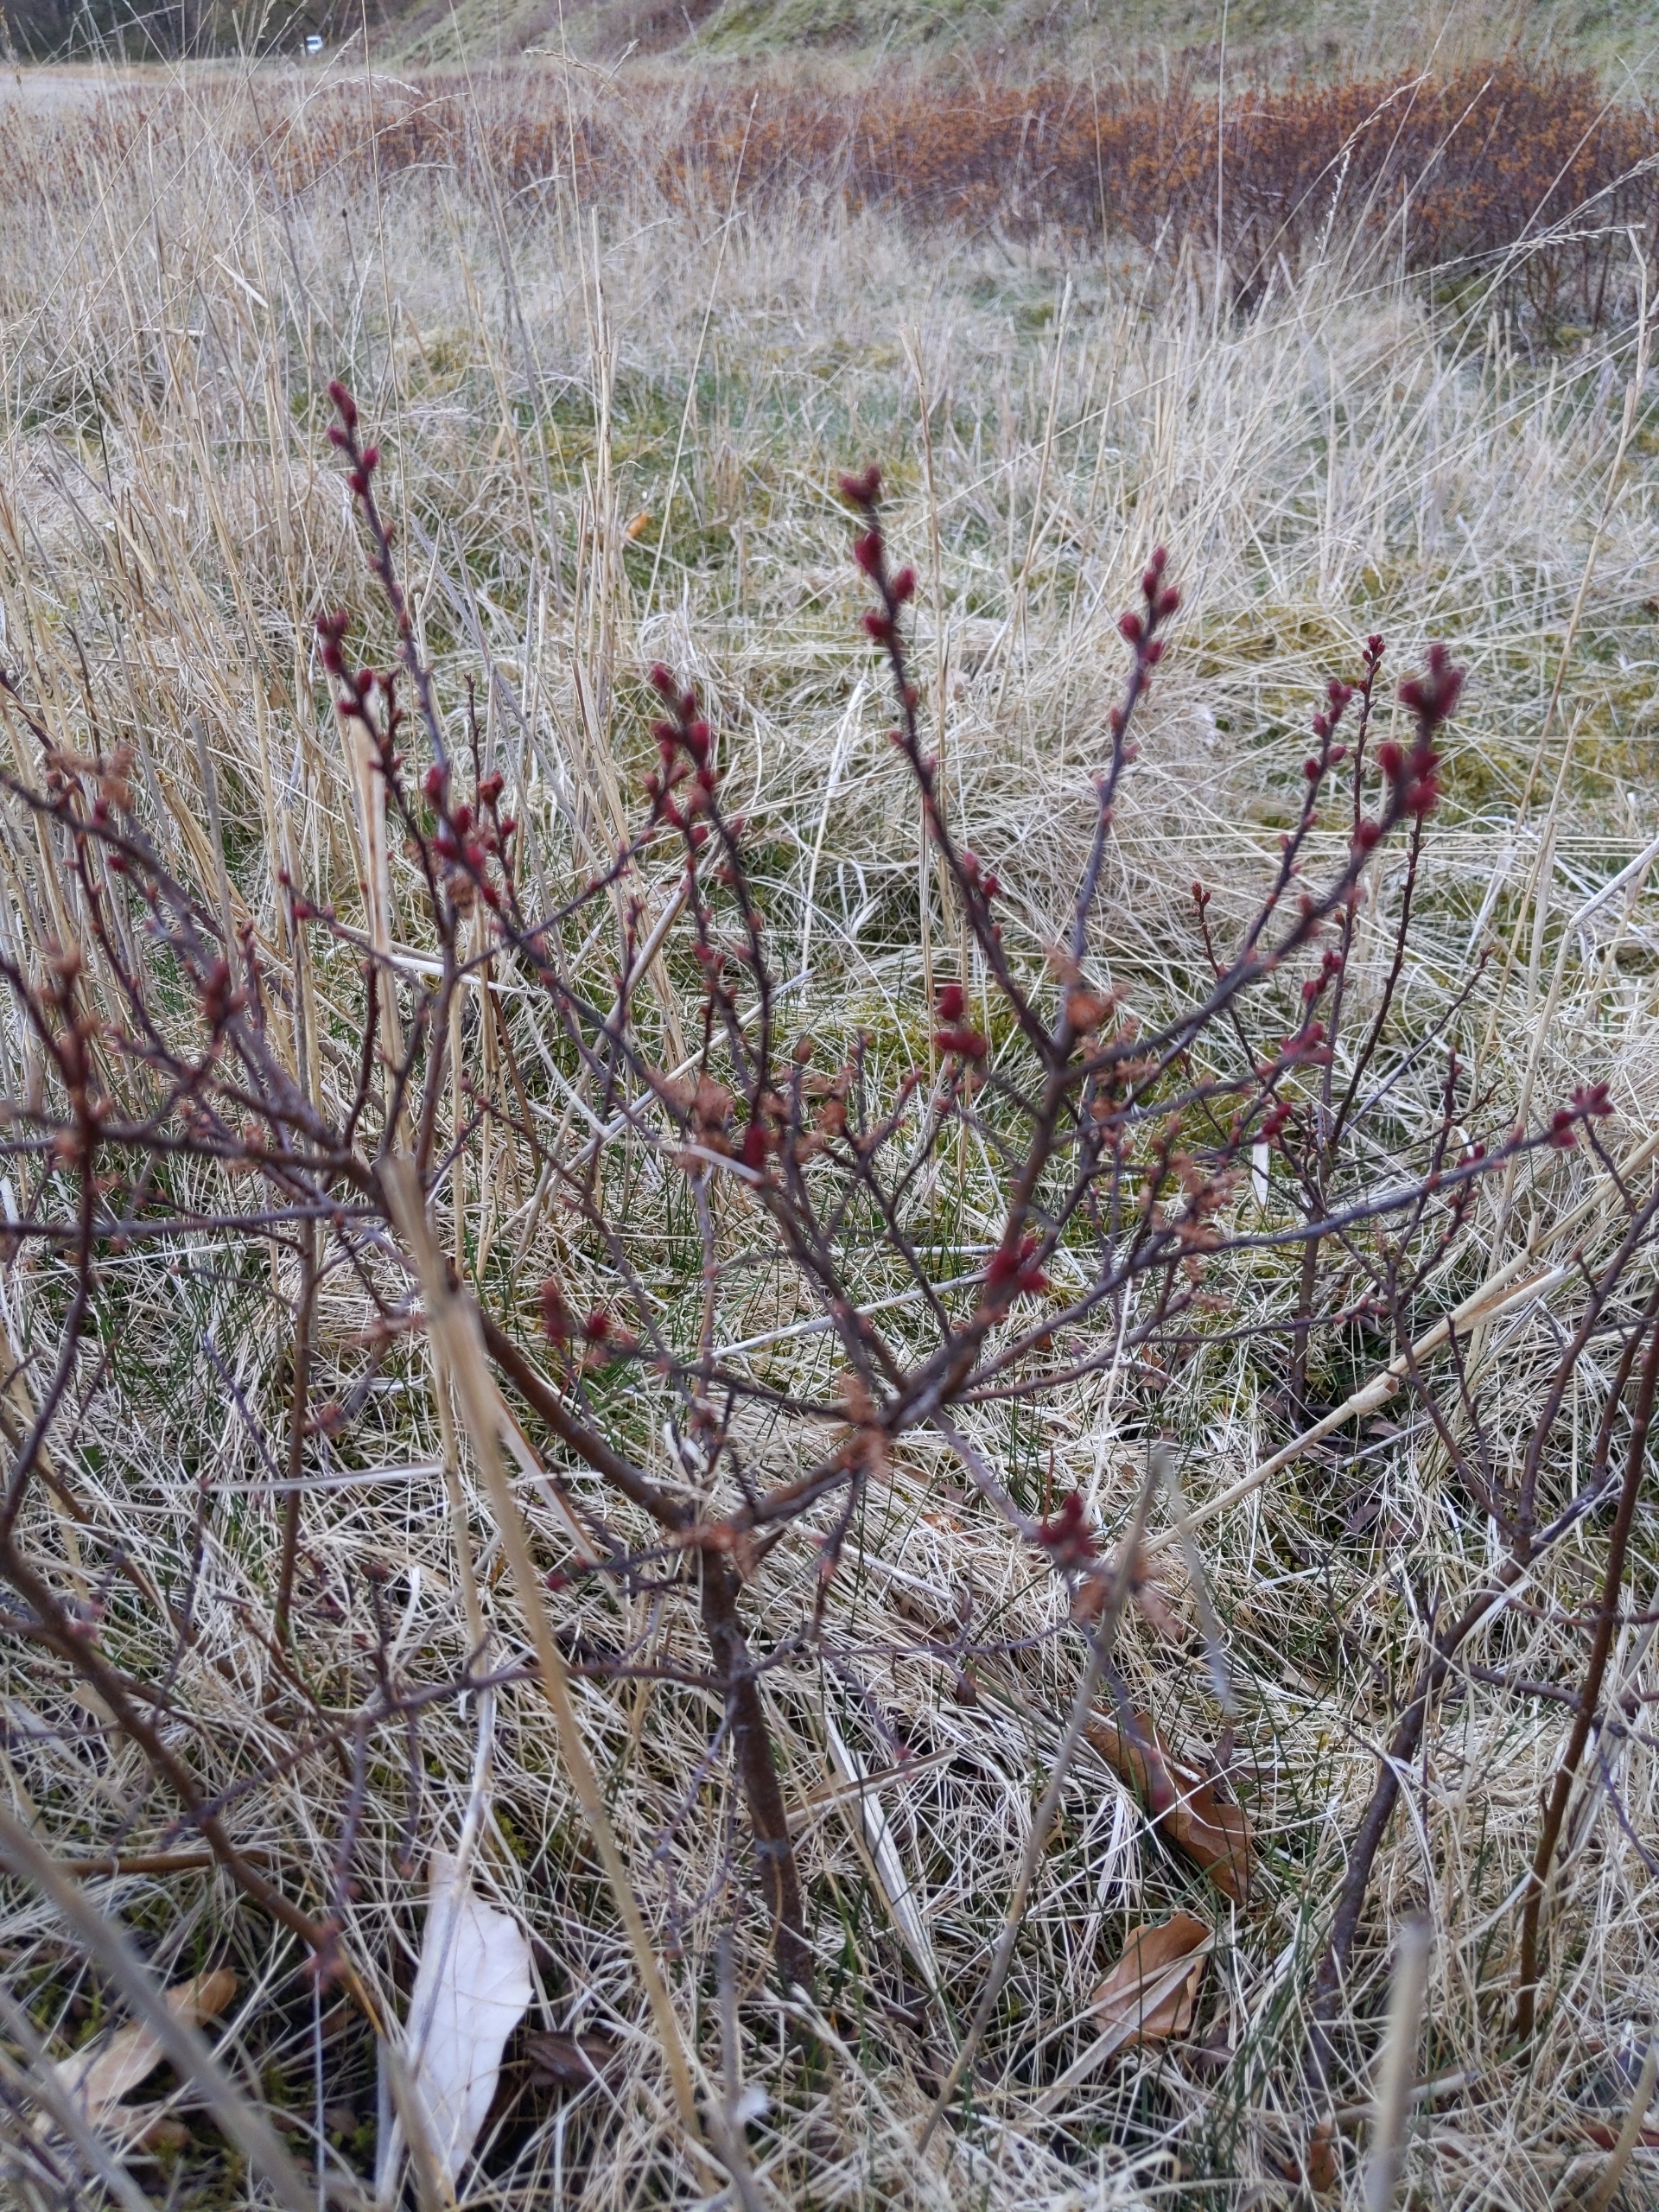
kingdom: Plantae
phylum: Tracheophyta
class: Magnoliopsida
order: Fagales
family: Myricaceae
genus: Myrica
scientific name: Myrica gale
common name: Pors
